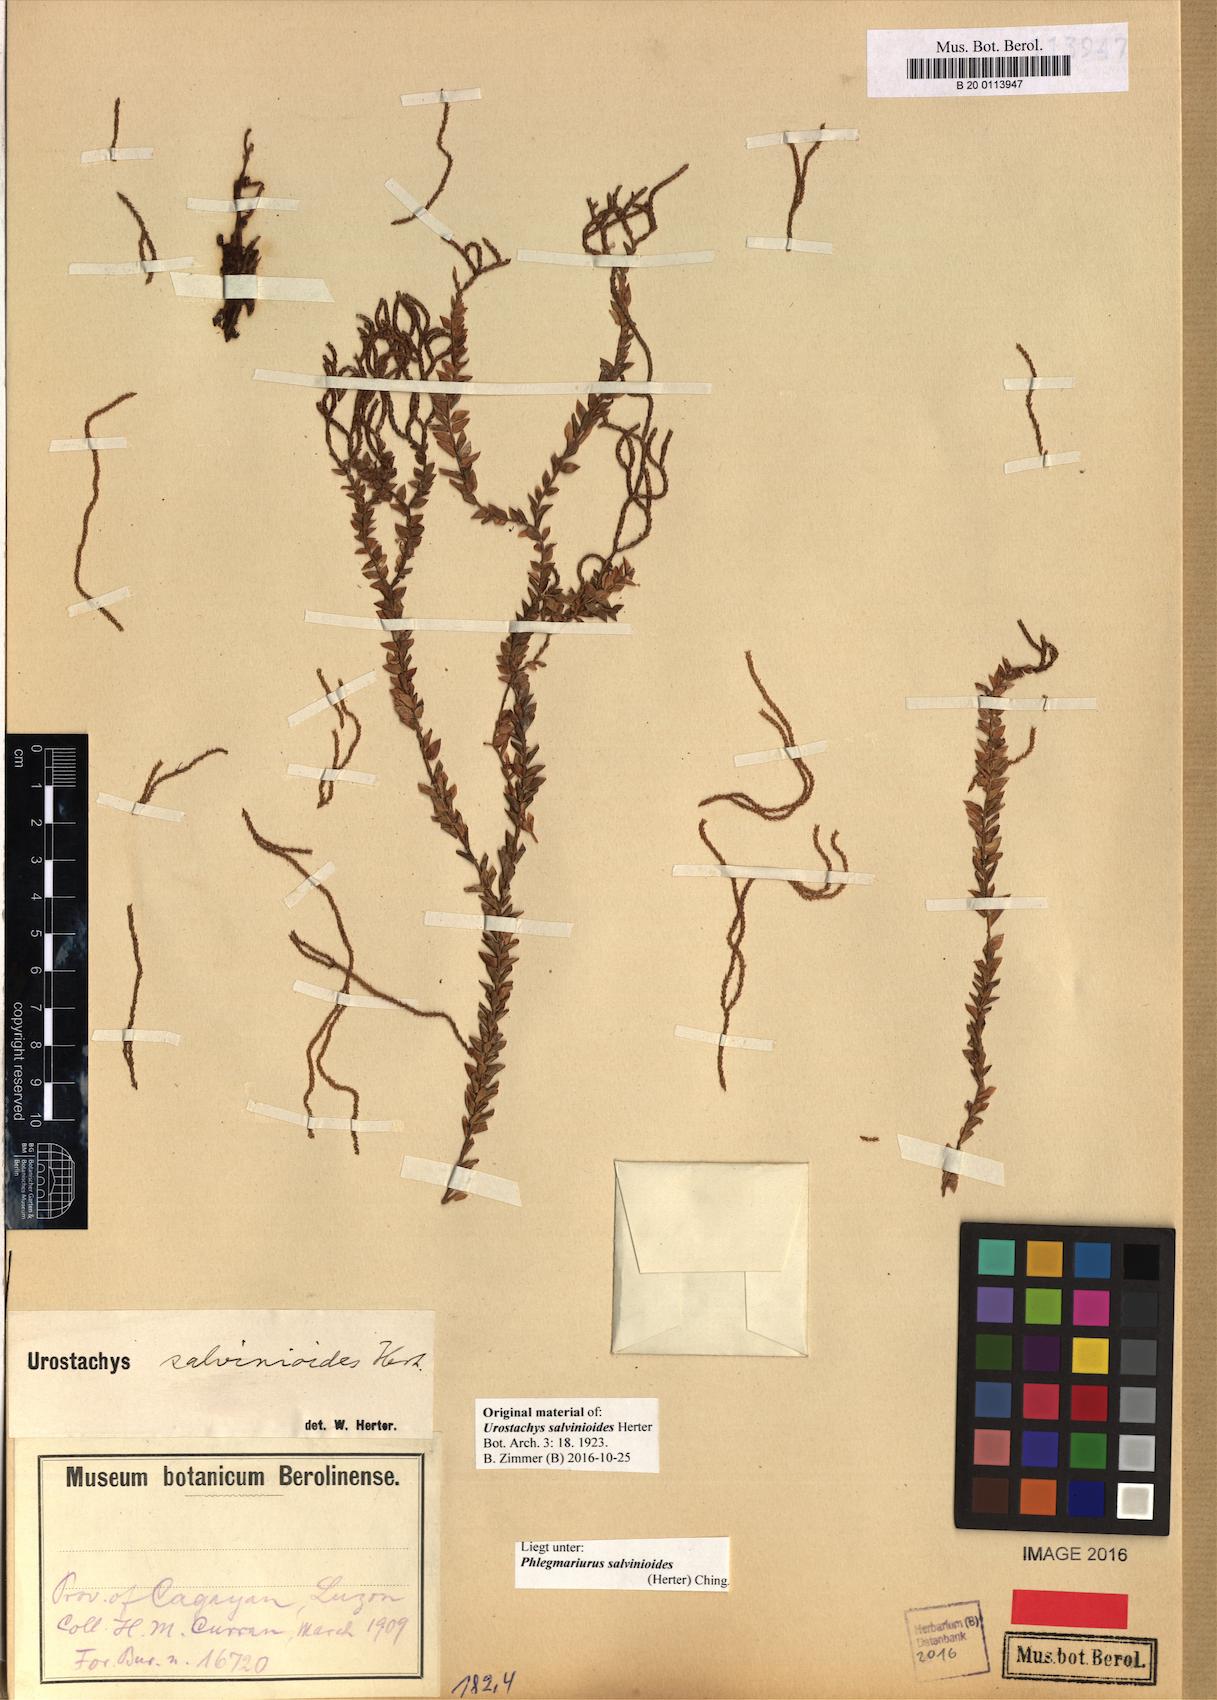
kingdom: Plantae
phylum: Tracheophyta
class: Lycopodiopsida
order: Lycopodiales
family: Lycopodiaceae
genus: Phlegmariurus
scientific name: Phlegmariurus salvinioides
